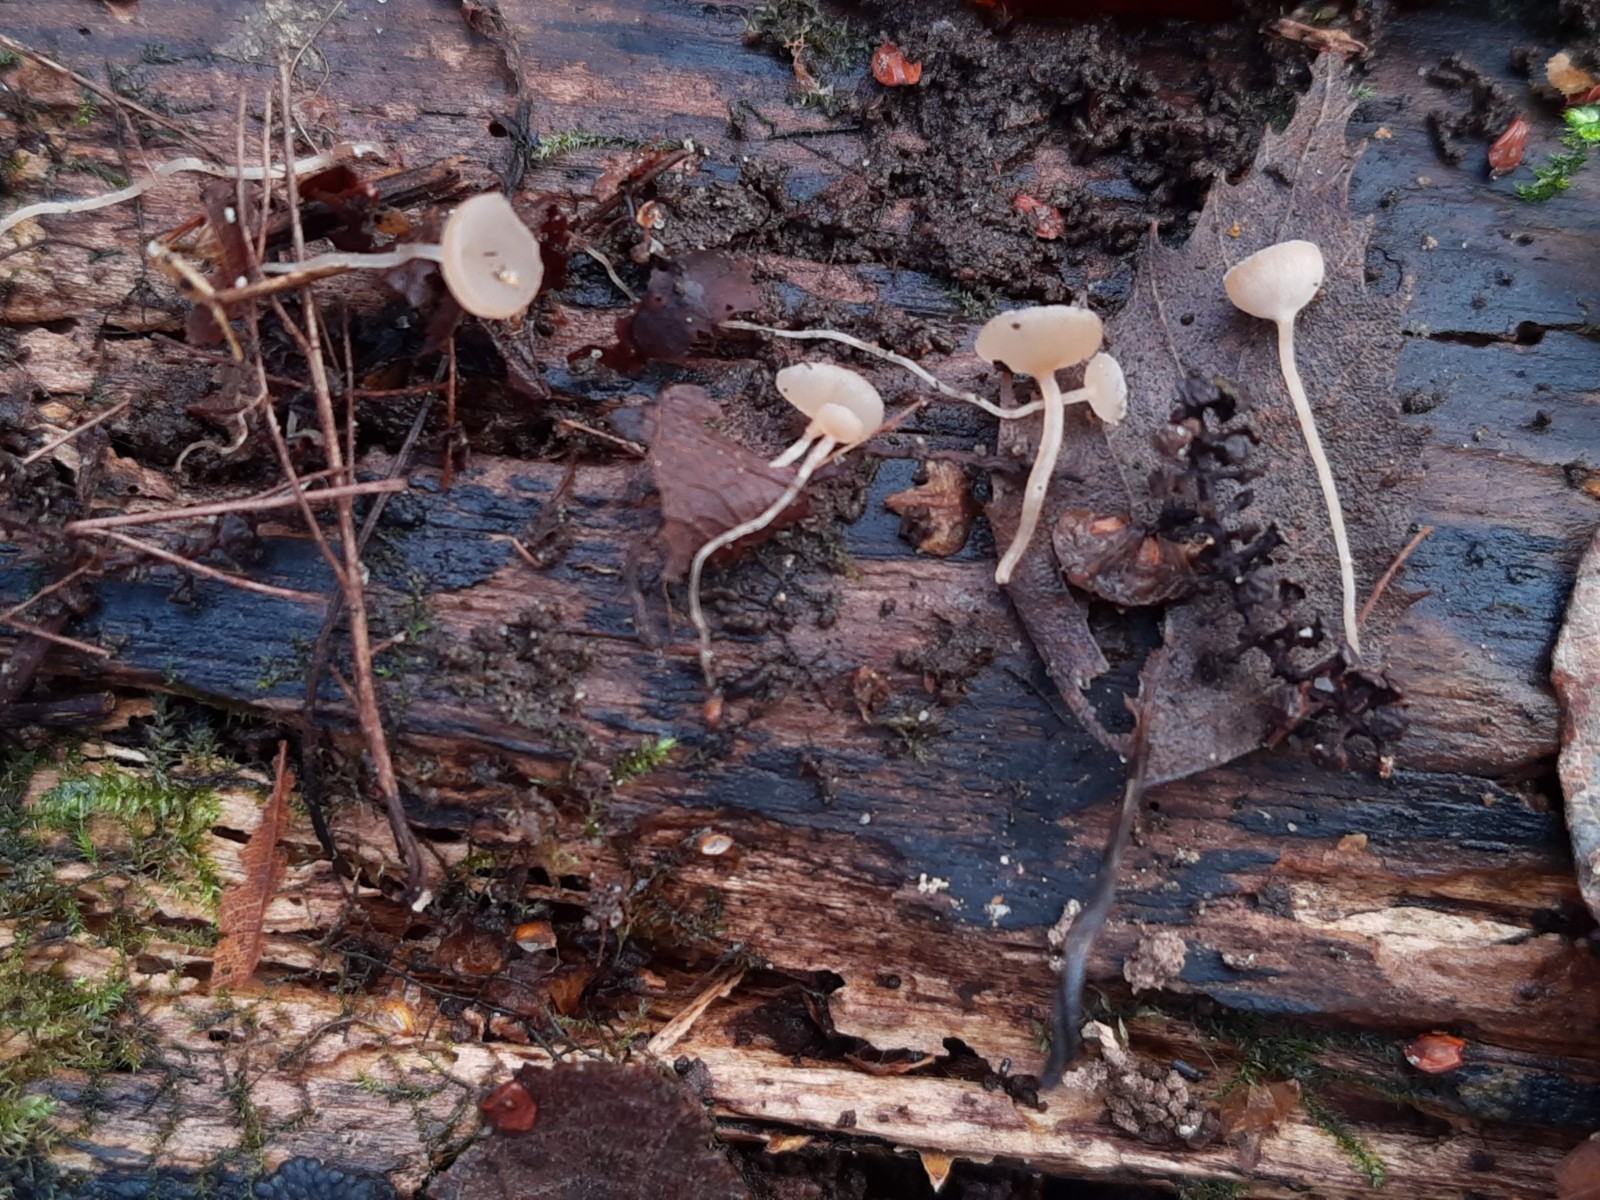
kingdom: Fungi
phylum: Ascomycota
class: Leotiomycetes
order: Helotiales
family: Sclerotiniaceae
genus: Ciboria
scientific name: Ciboria caucus
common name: rakle-knoldskive
